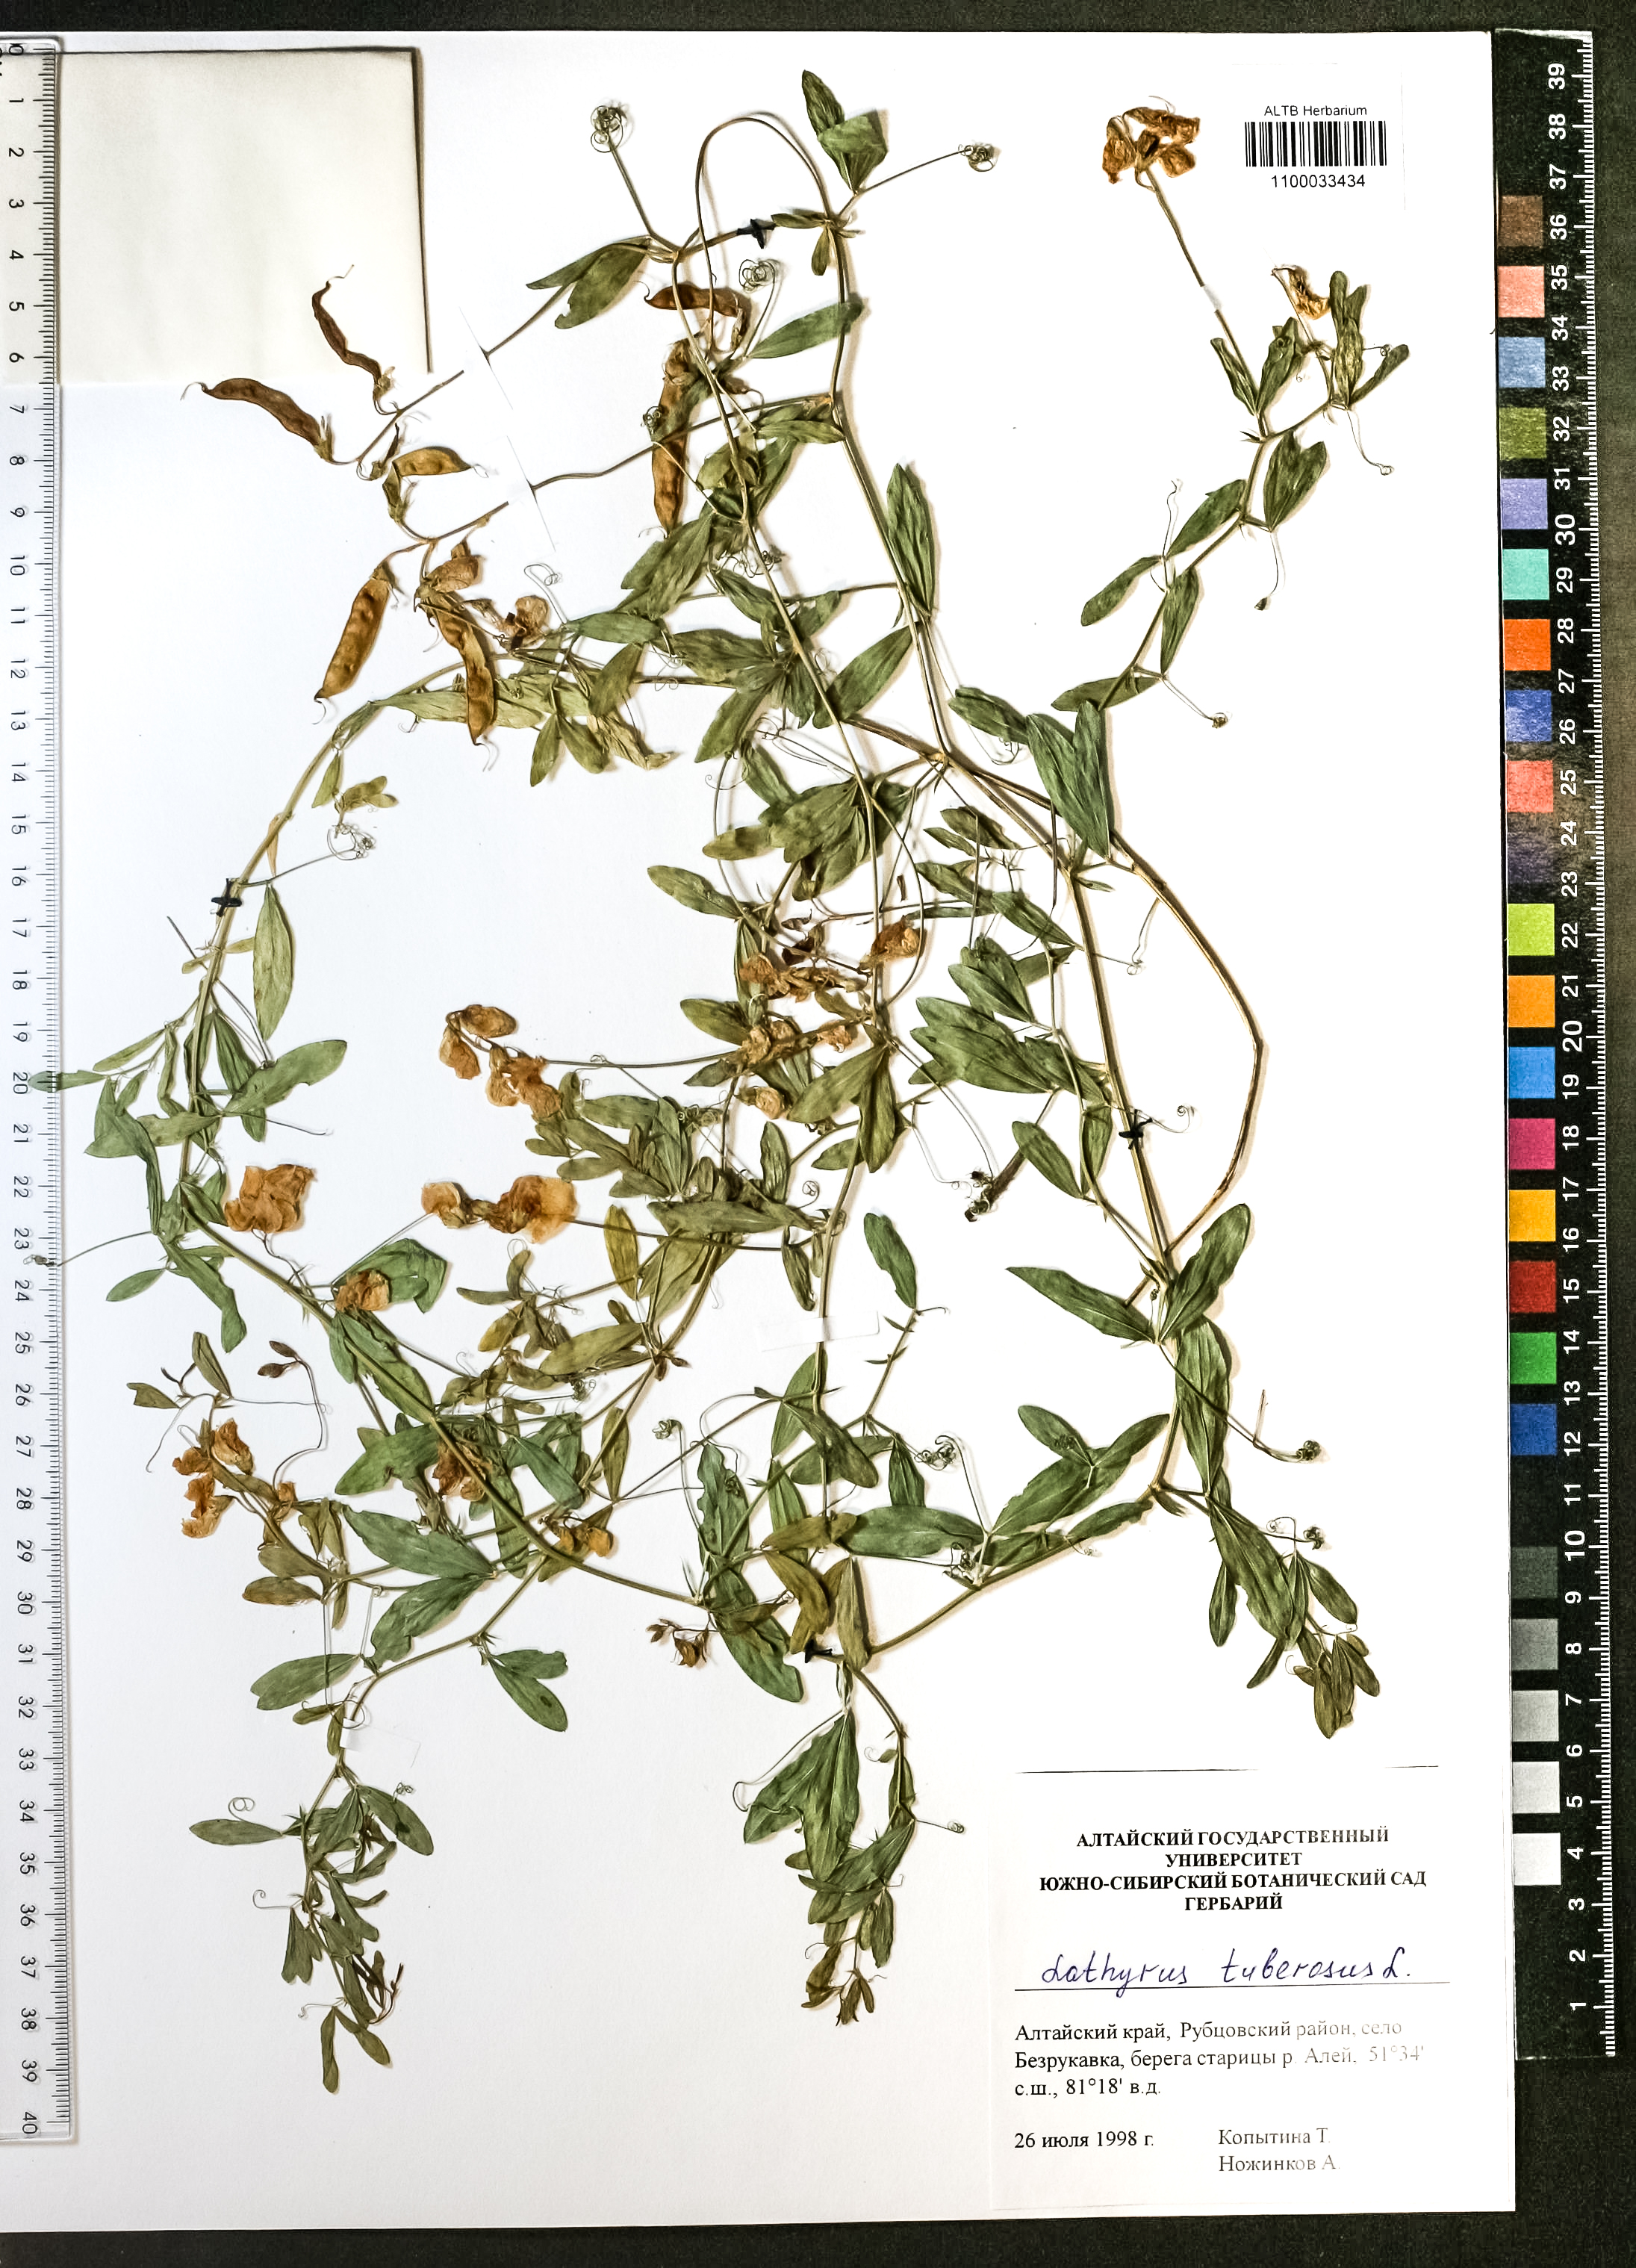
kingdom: Plantae
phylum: Tracheophyta
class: Magnoliopsida
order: Fabales
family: Fabaceae
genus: Lathyrus
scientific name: Lathyrus tuberosus
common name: Tuberous pea
